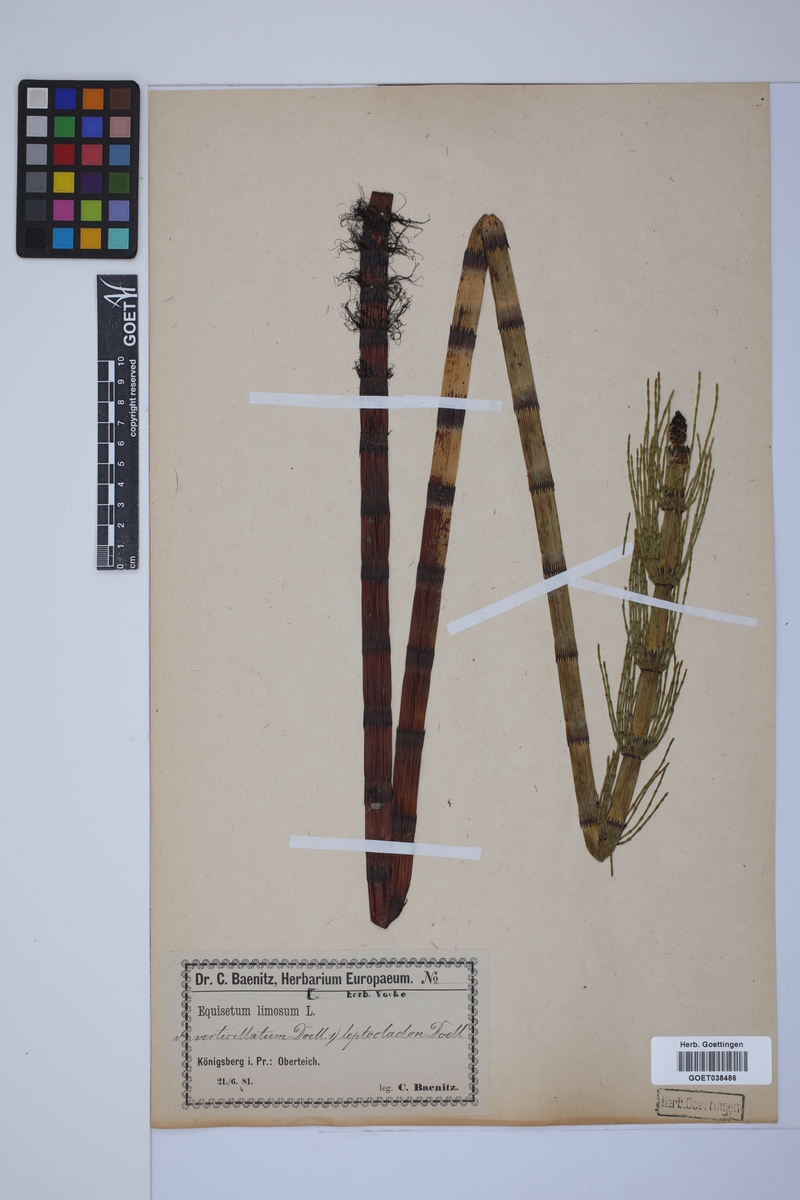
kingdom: Plantae
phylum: Tracheophyta
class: Polypodiopsida
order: Equisetales
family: Equisetaceae
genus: Equisetum
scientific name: Equisetum fluviatile
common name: Water horsetail
